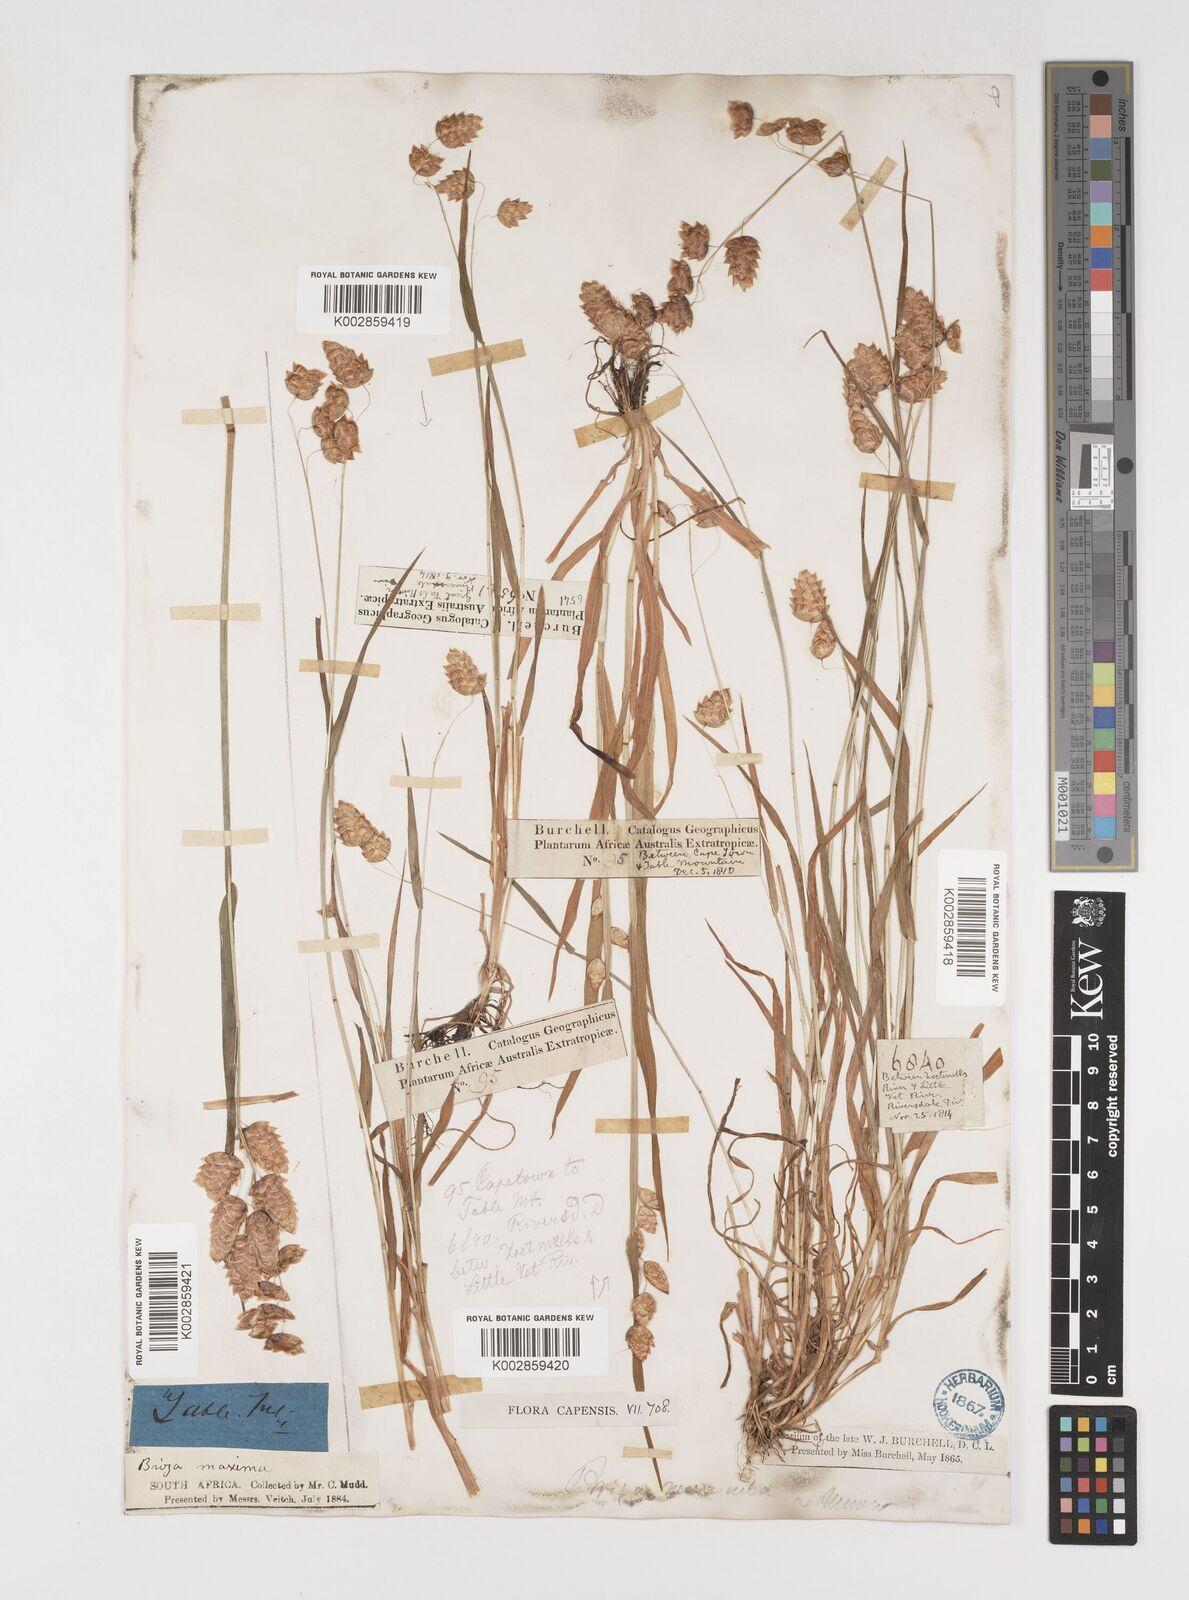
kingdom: Plantae
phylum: Tracheophyta
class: Liliopsida
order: Poales
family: Poaceae
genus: Briza
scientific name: Briza maxima
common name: Big quakinggrass
